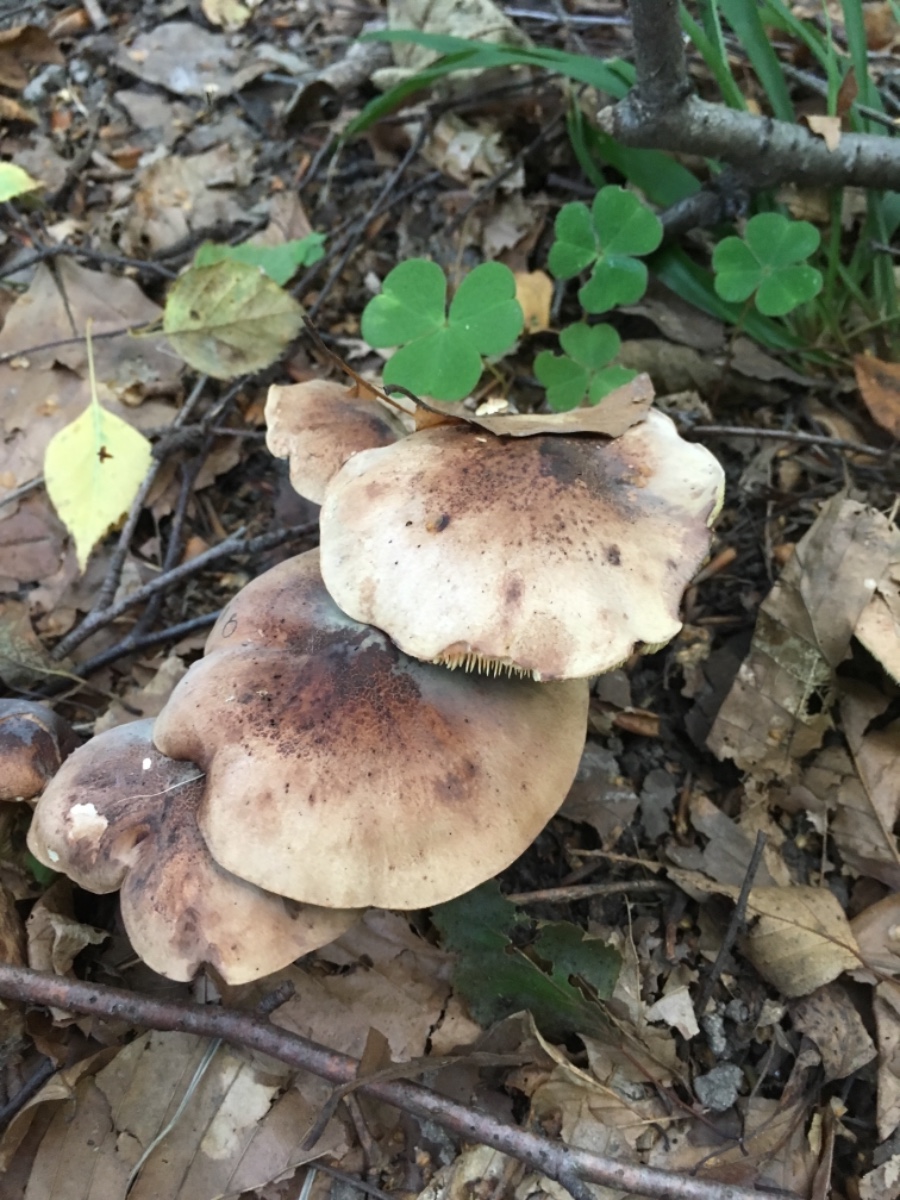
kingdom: Fungi
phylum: Basidiomycota
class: Agaricomycetes
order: Agaricales
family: Tricholomataceae
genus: Tricholoma
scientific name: Tricholoma fulvum
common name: birke-ridderhat
